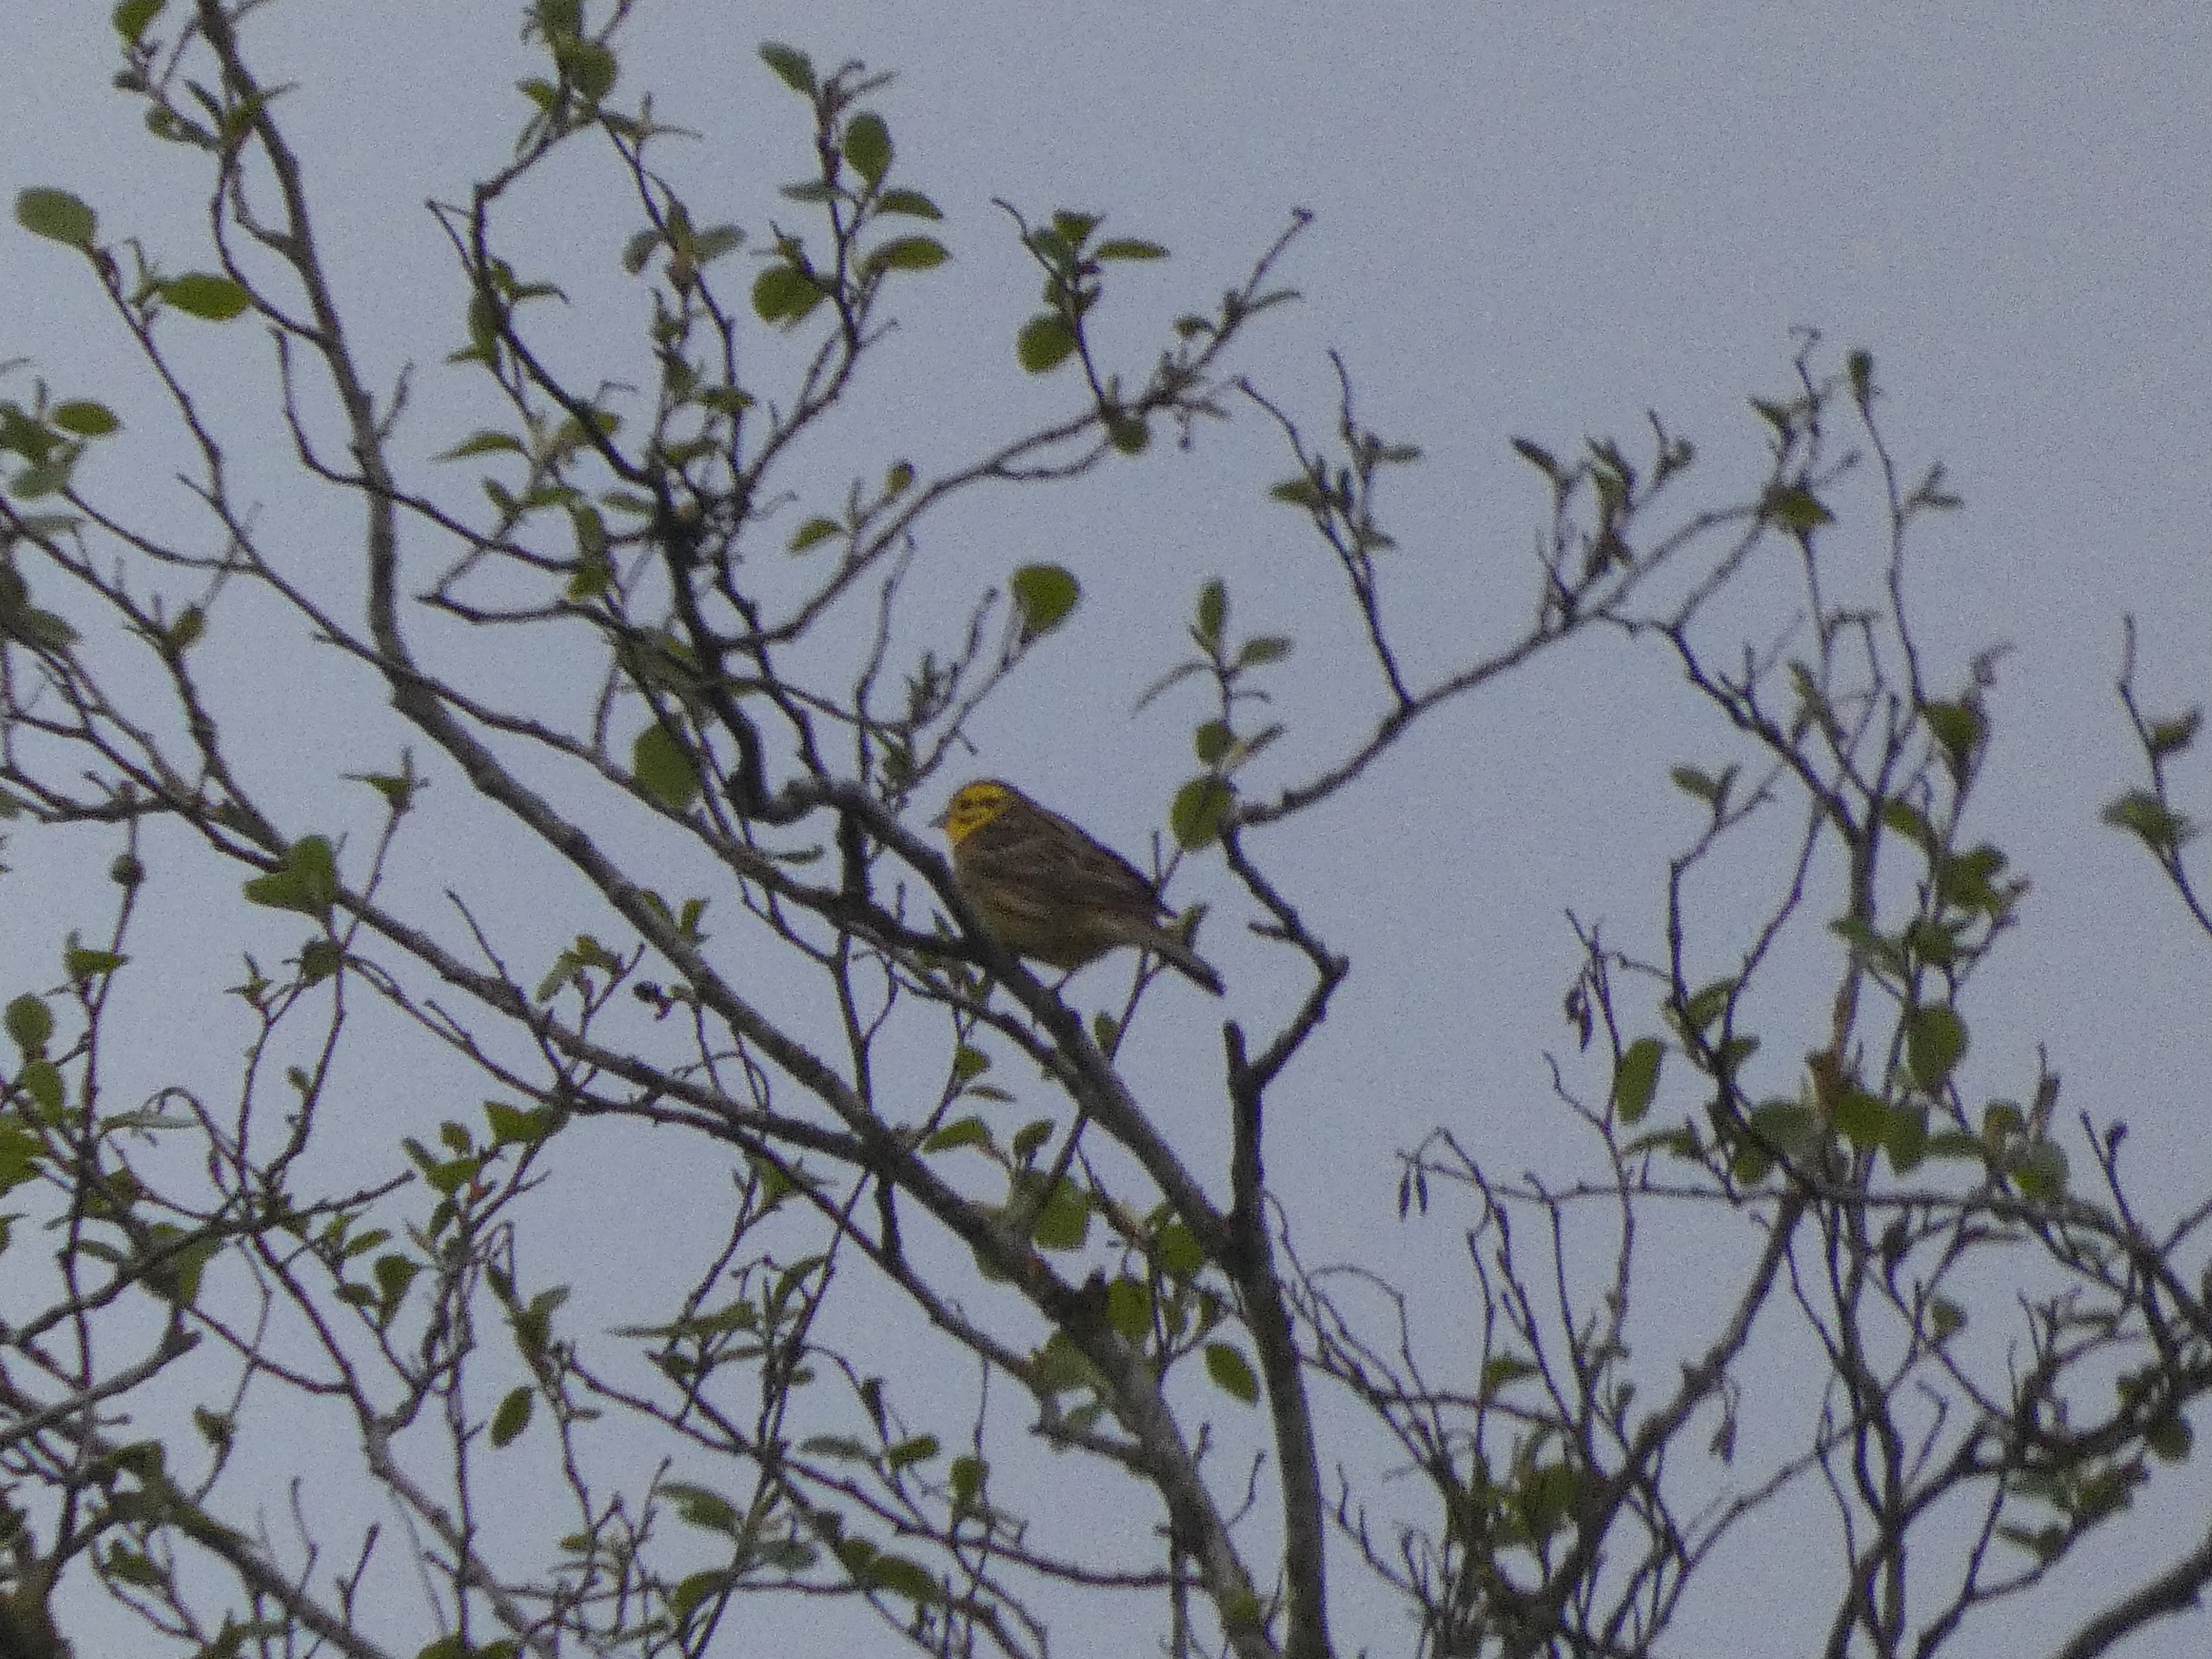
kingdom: Animalia
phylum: Chordata
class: Aves
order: Passeriformes
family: Emberizidae
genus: Emberiza
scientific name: Emberiza citrinella
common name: Gulspurv
